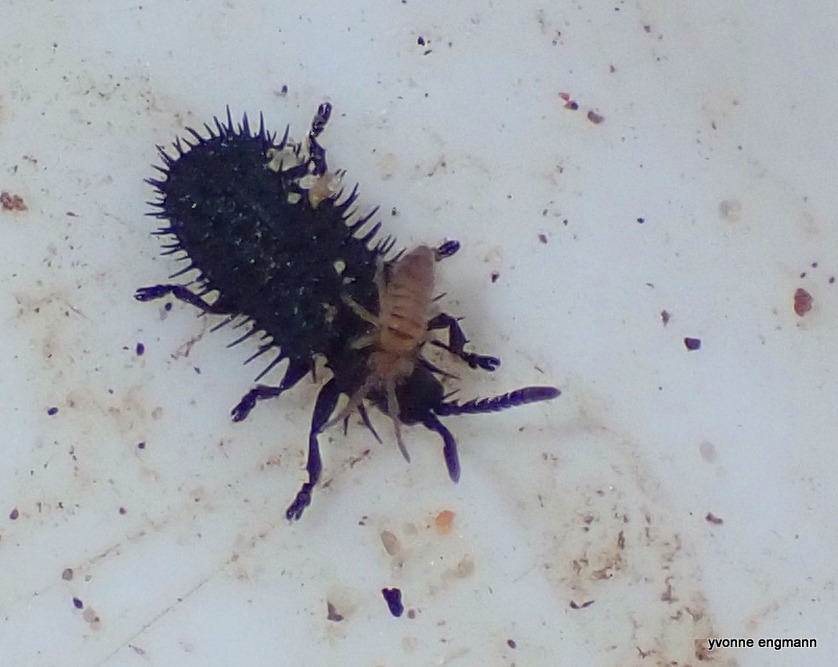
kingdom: Animalia
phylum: Arthropoda
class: Insecta
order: Coleoptera
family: Chrysomelidae
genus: Hispa
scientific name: Hispa atra
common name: Pindsvinebille
